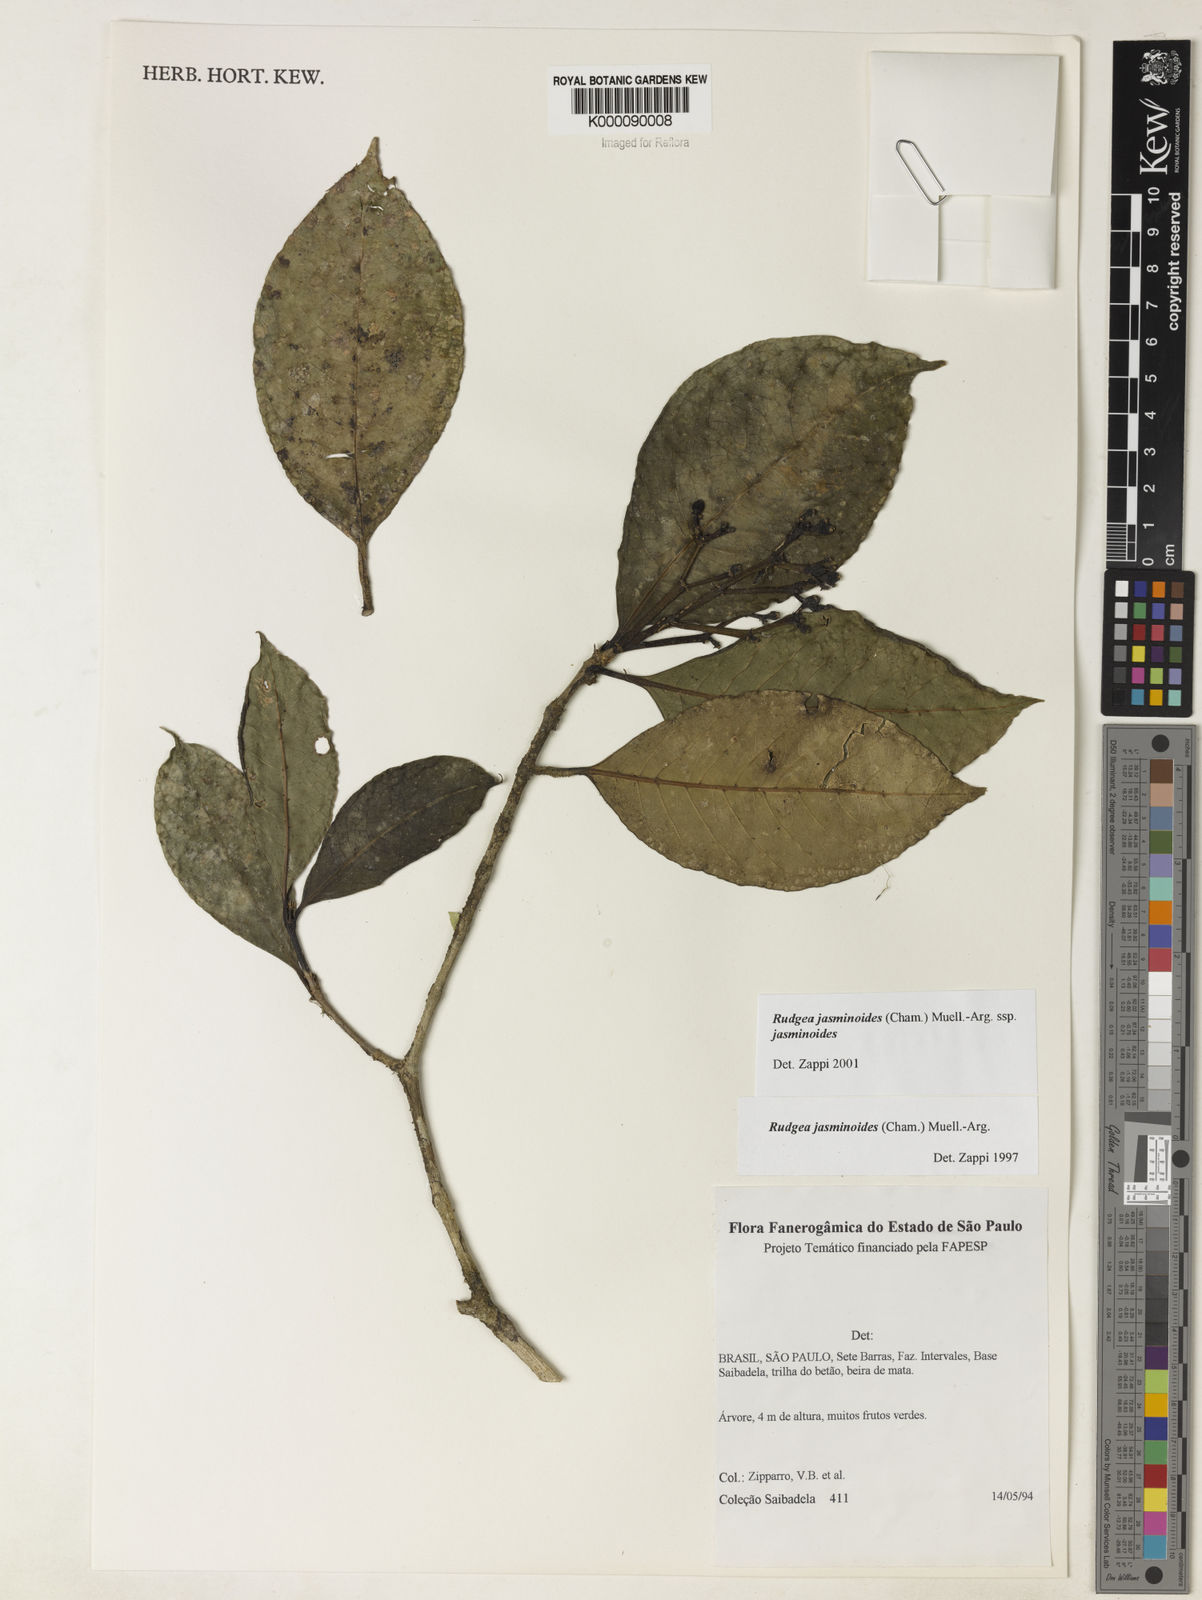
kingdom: Plantae
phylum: Tracheophyta
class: Magnoliopsida
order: Gentianales
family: Rubiaceae
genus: Rudgea
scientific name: Rudgea jasminoides
